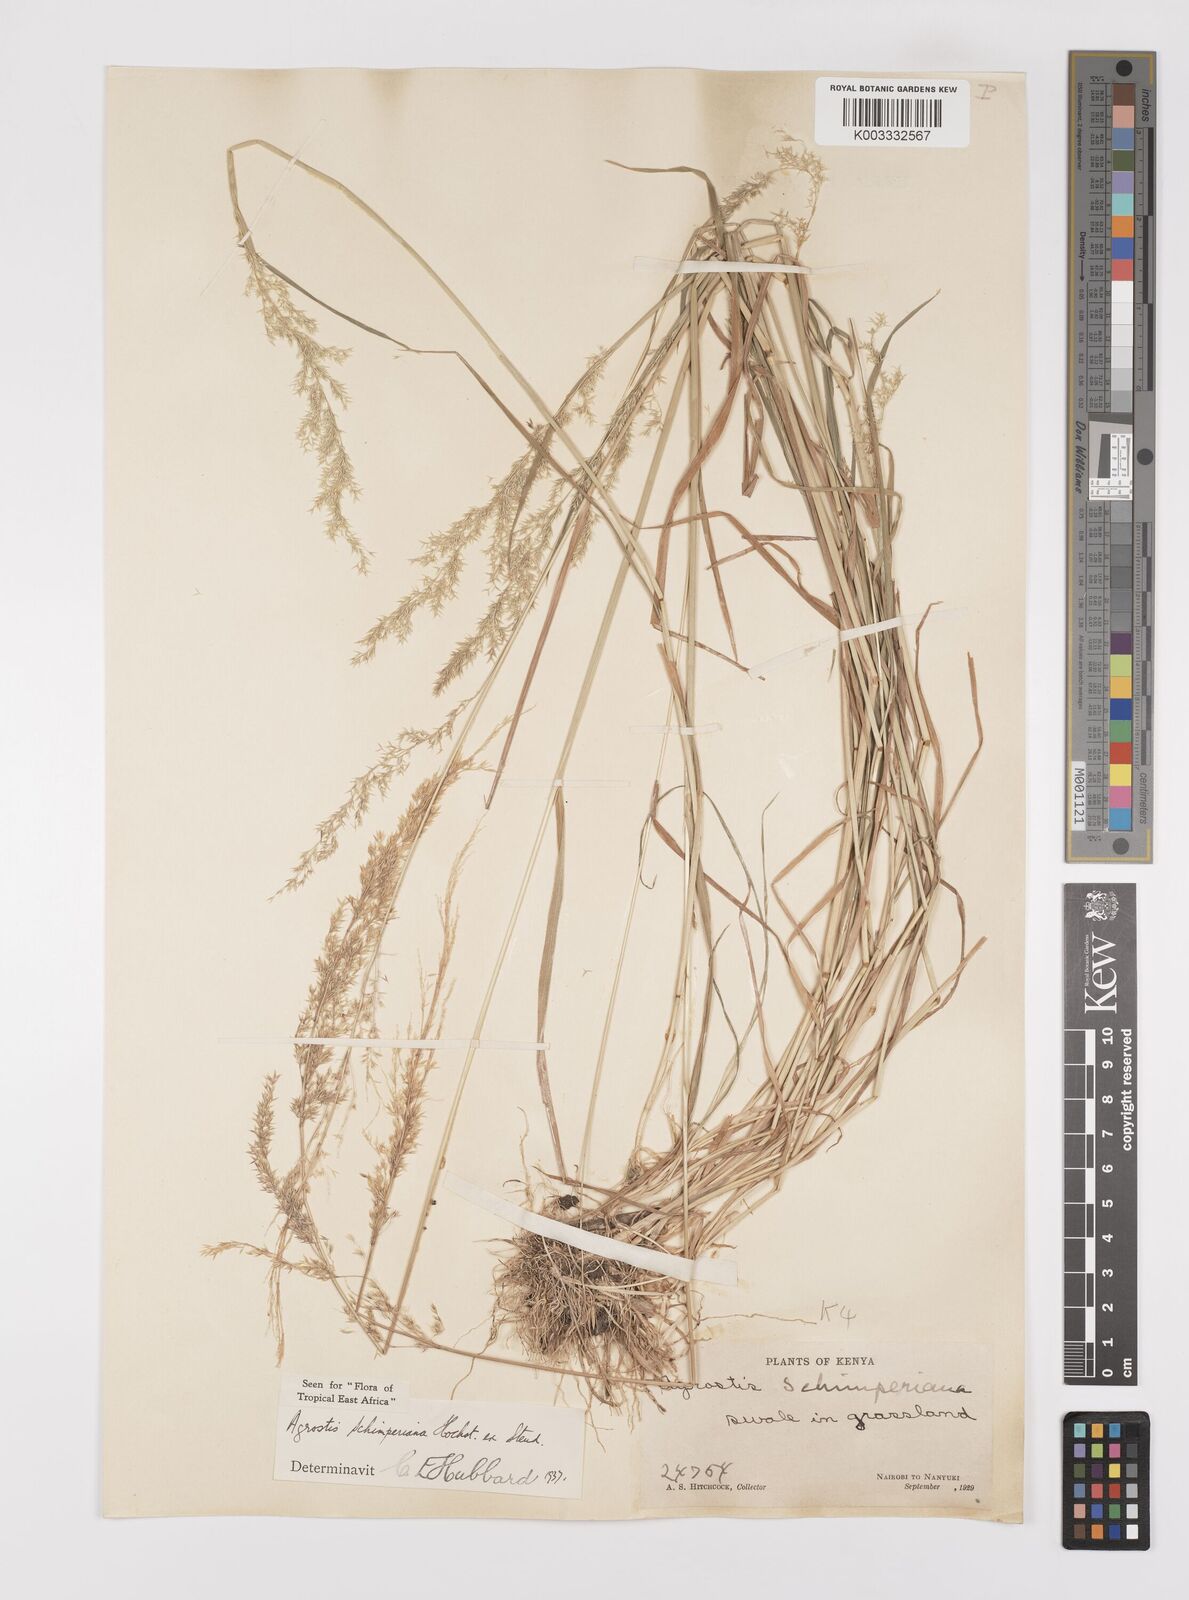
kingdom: Plantae
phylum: Tracheophyta
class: Liliopsida
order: Poales
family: Poaceae
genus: Polypogon
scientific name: Polypogon schimperianus
